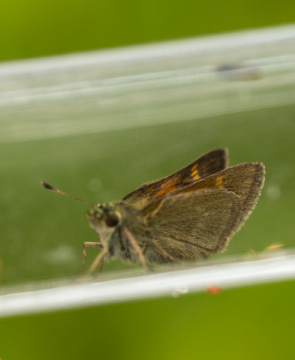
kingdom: Animalia
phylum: Arthropoda
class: Insecta
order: Lepidoptera
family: Hesperiidae
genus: Polites
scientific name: Polites themistocles
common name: Tawny-edged Skipper
